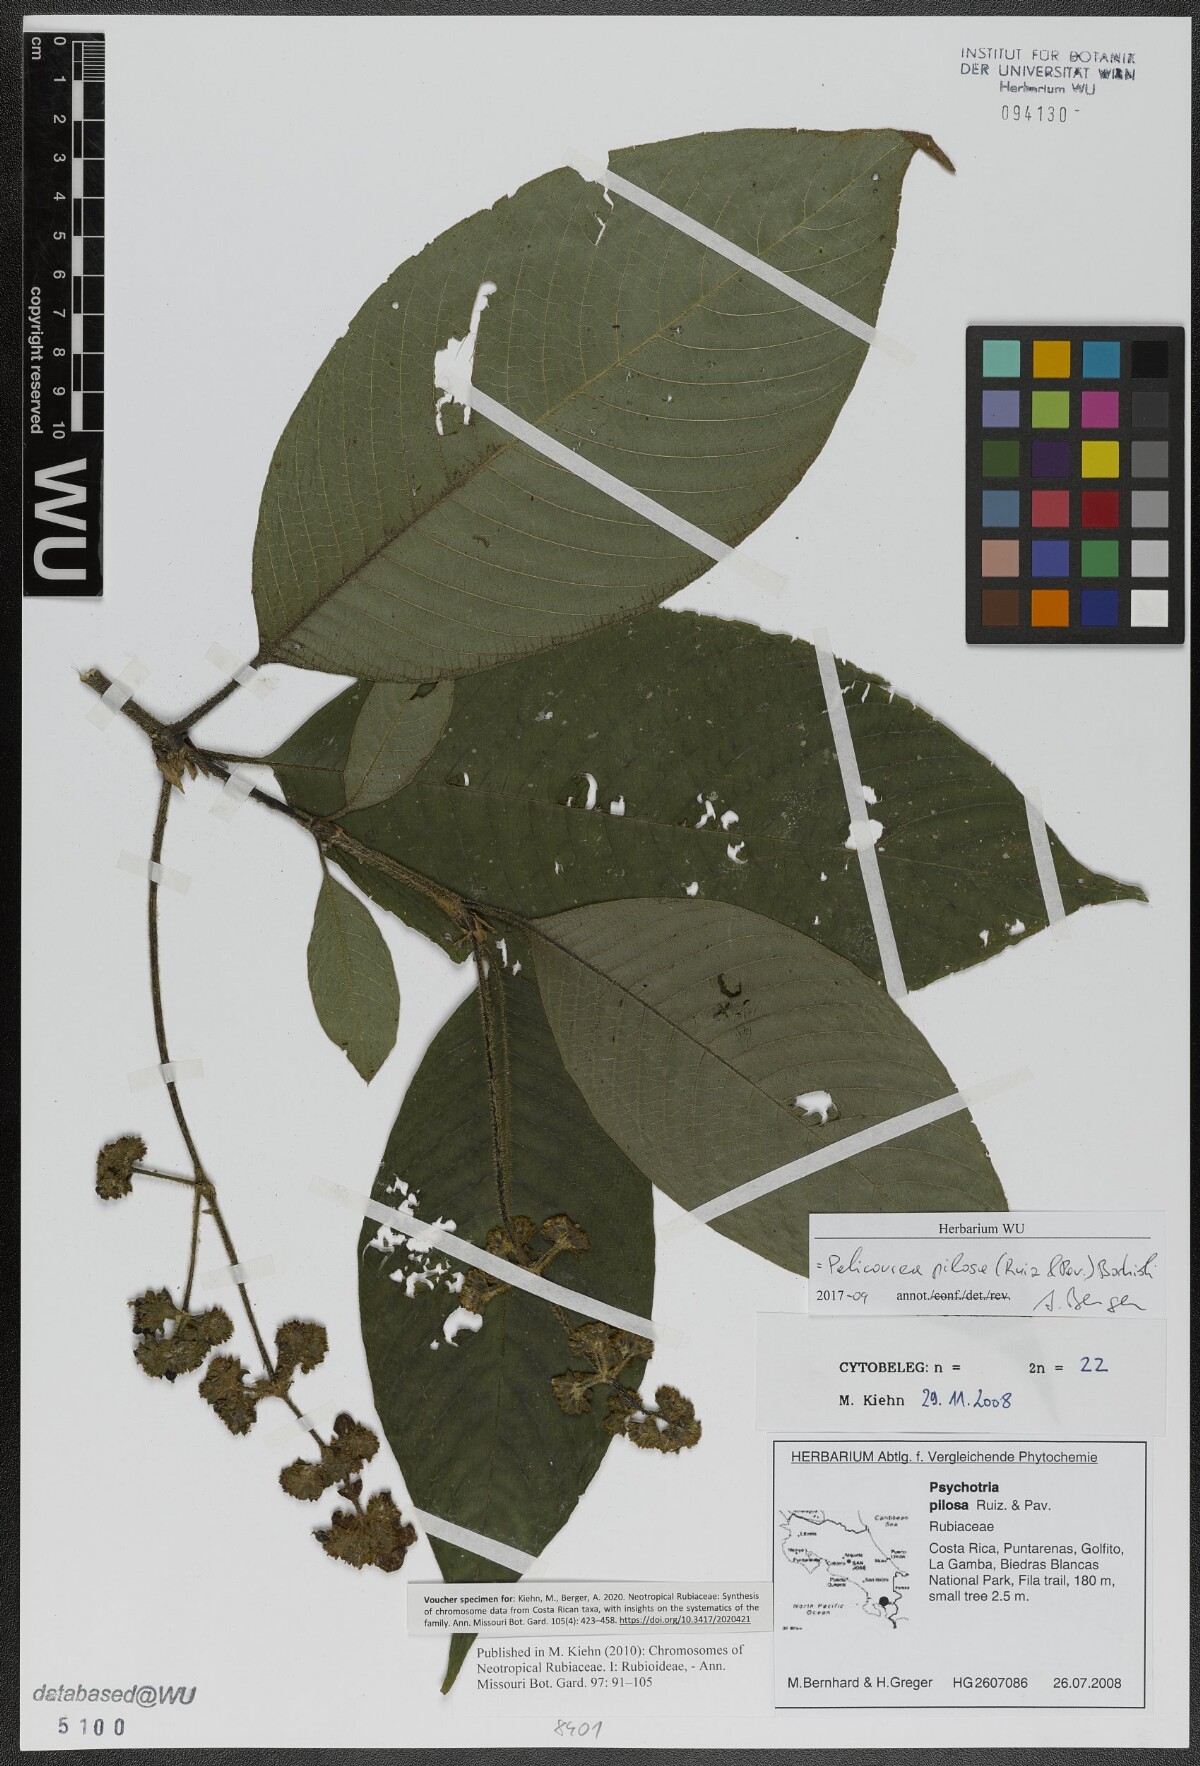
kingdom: Plantae
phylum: Tracheophyta
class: Magnoliopsida
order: Gentianales
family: Rubiaceae
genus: Palicourea
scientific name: Palicourea pilosa
